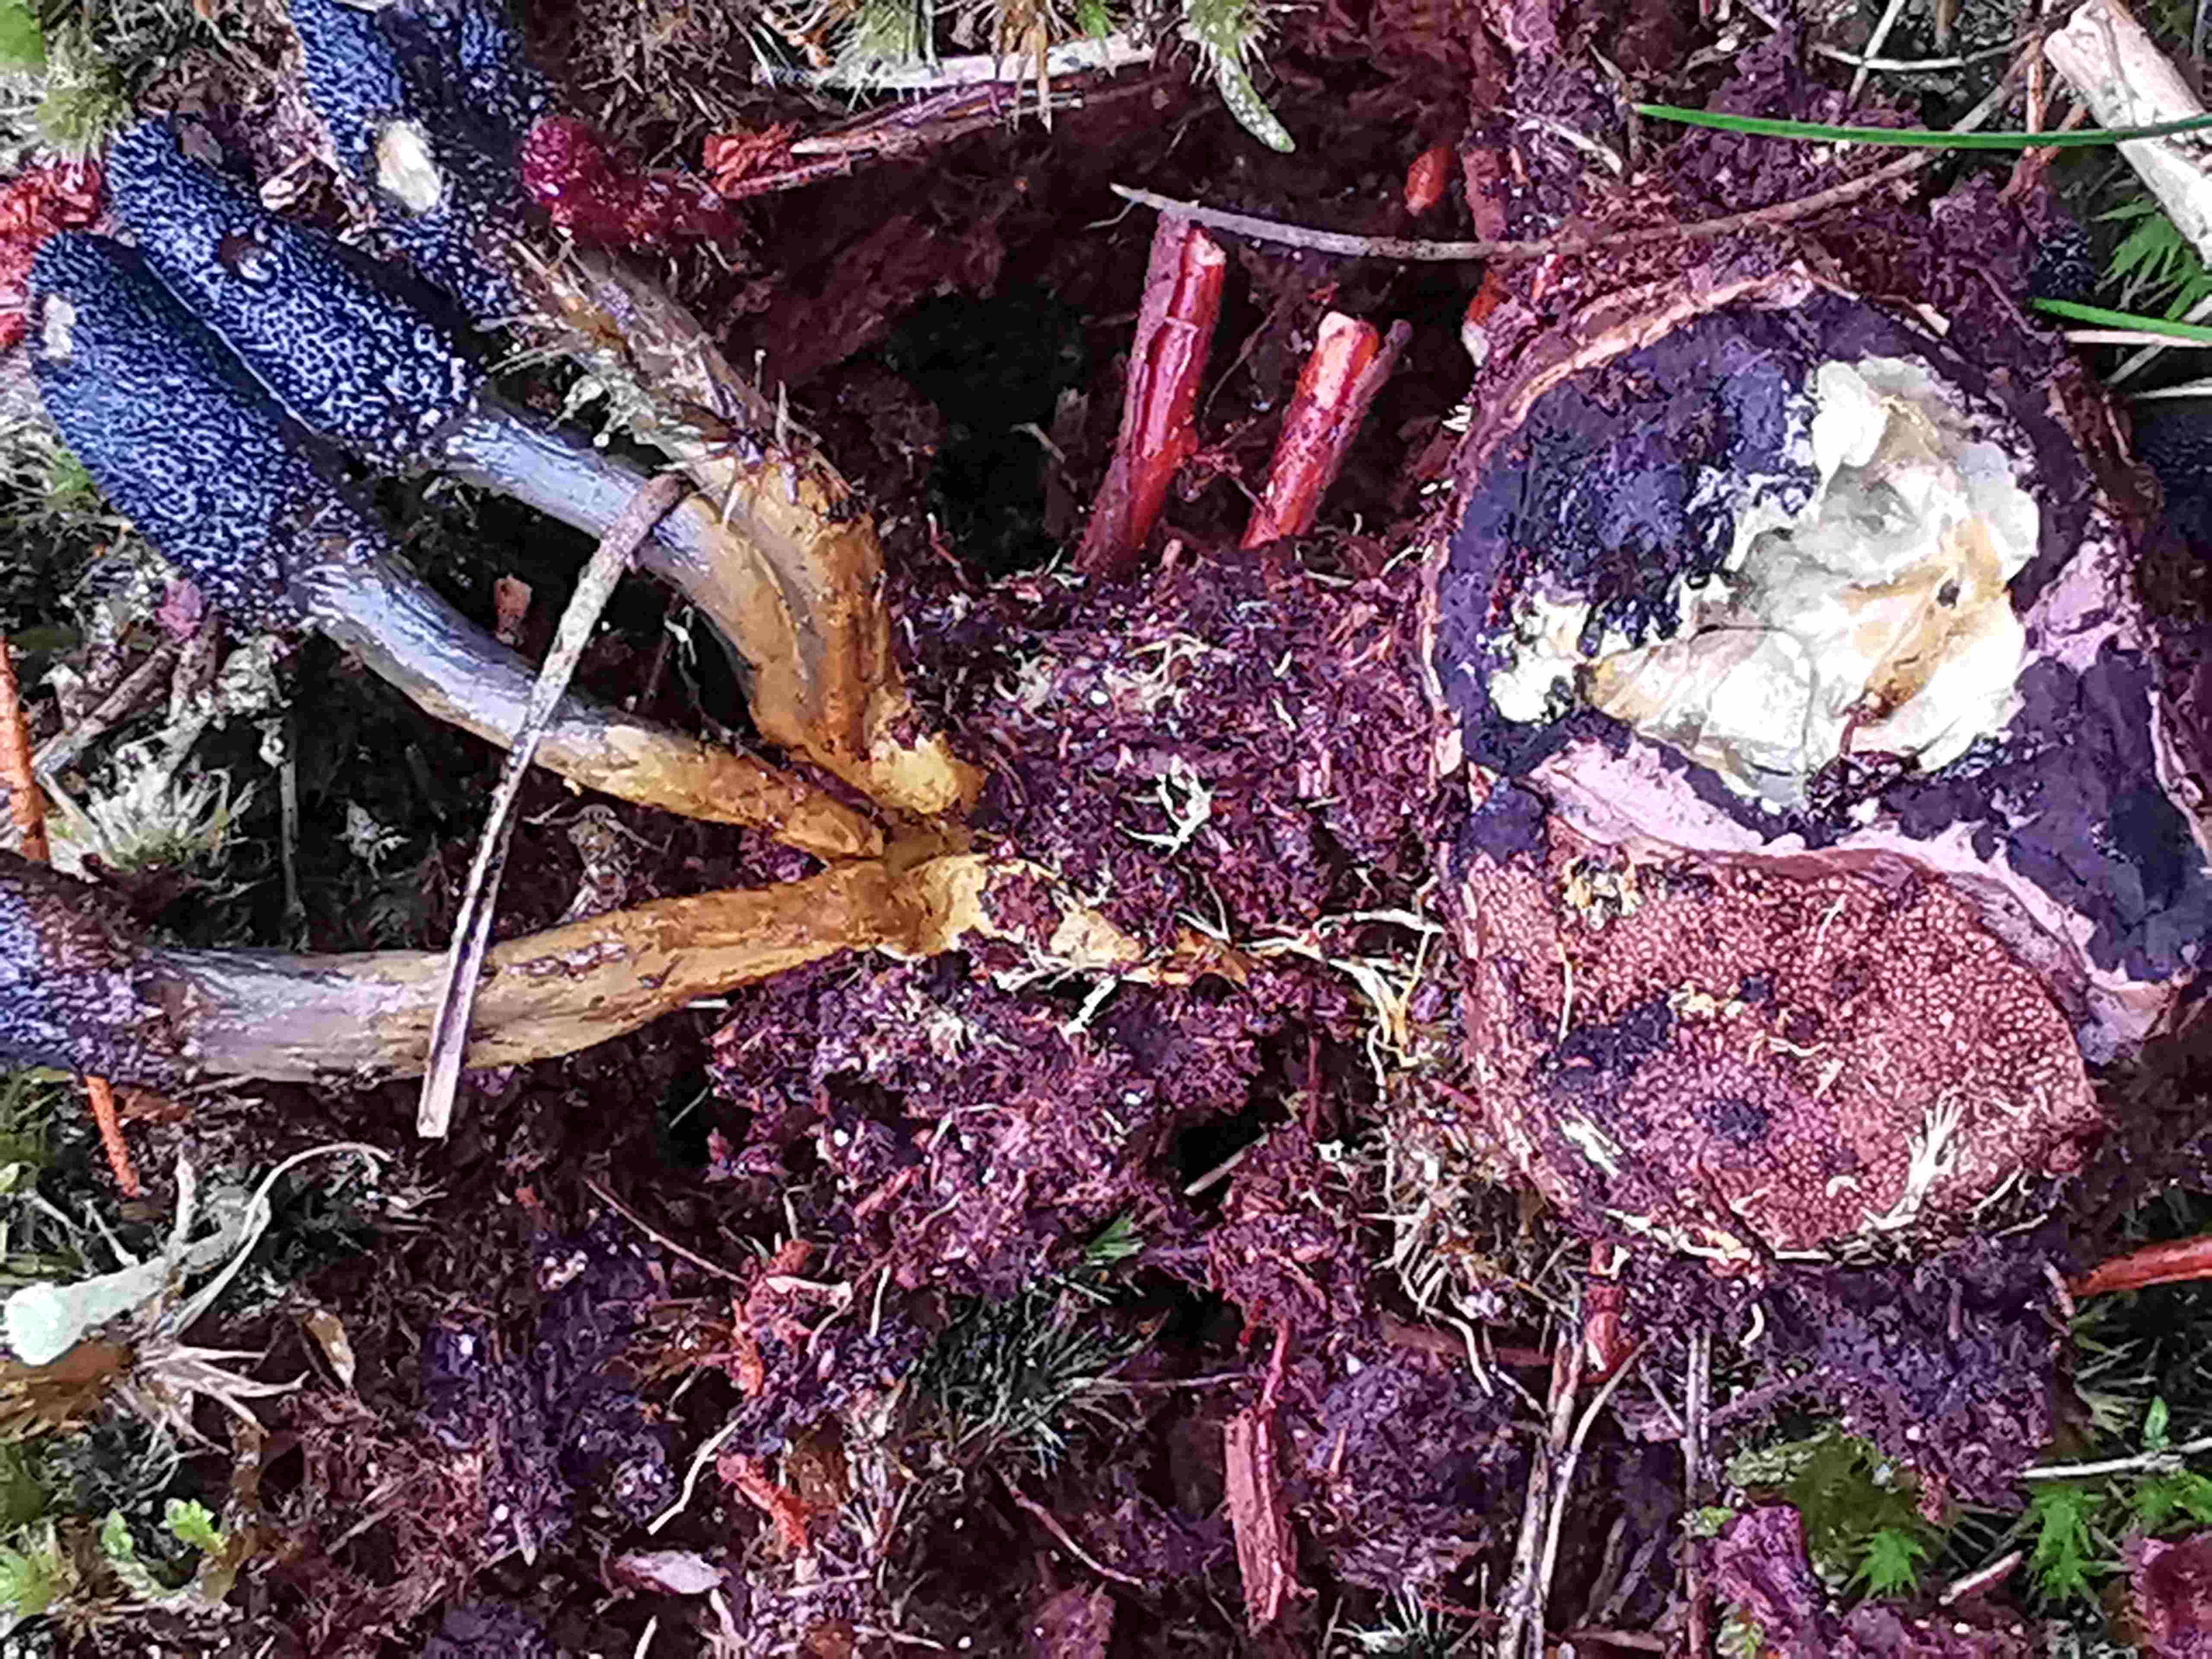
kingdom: Fungi
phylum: Ascomycota
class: Eurotiomycetes
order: Eurotiales
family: Elaphomycetaceae
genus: Elaphomyces
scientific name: Elaphomyces
